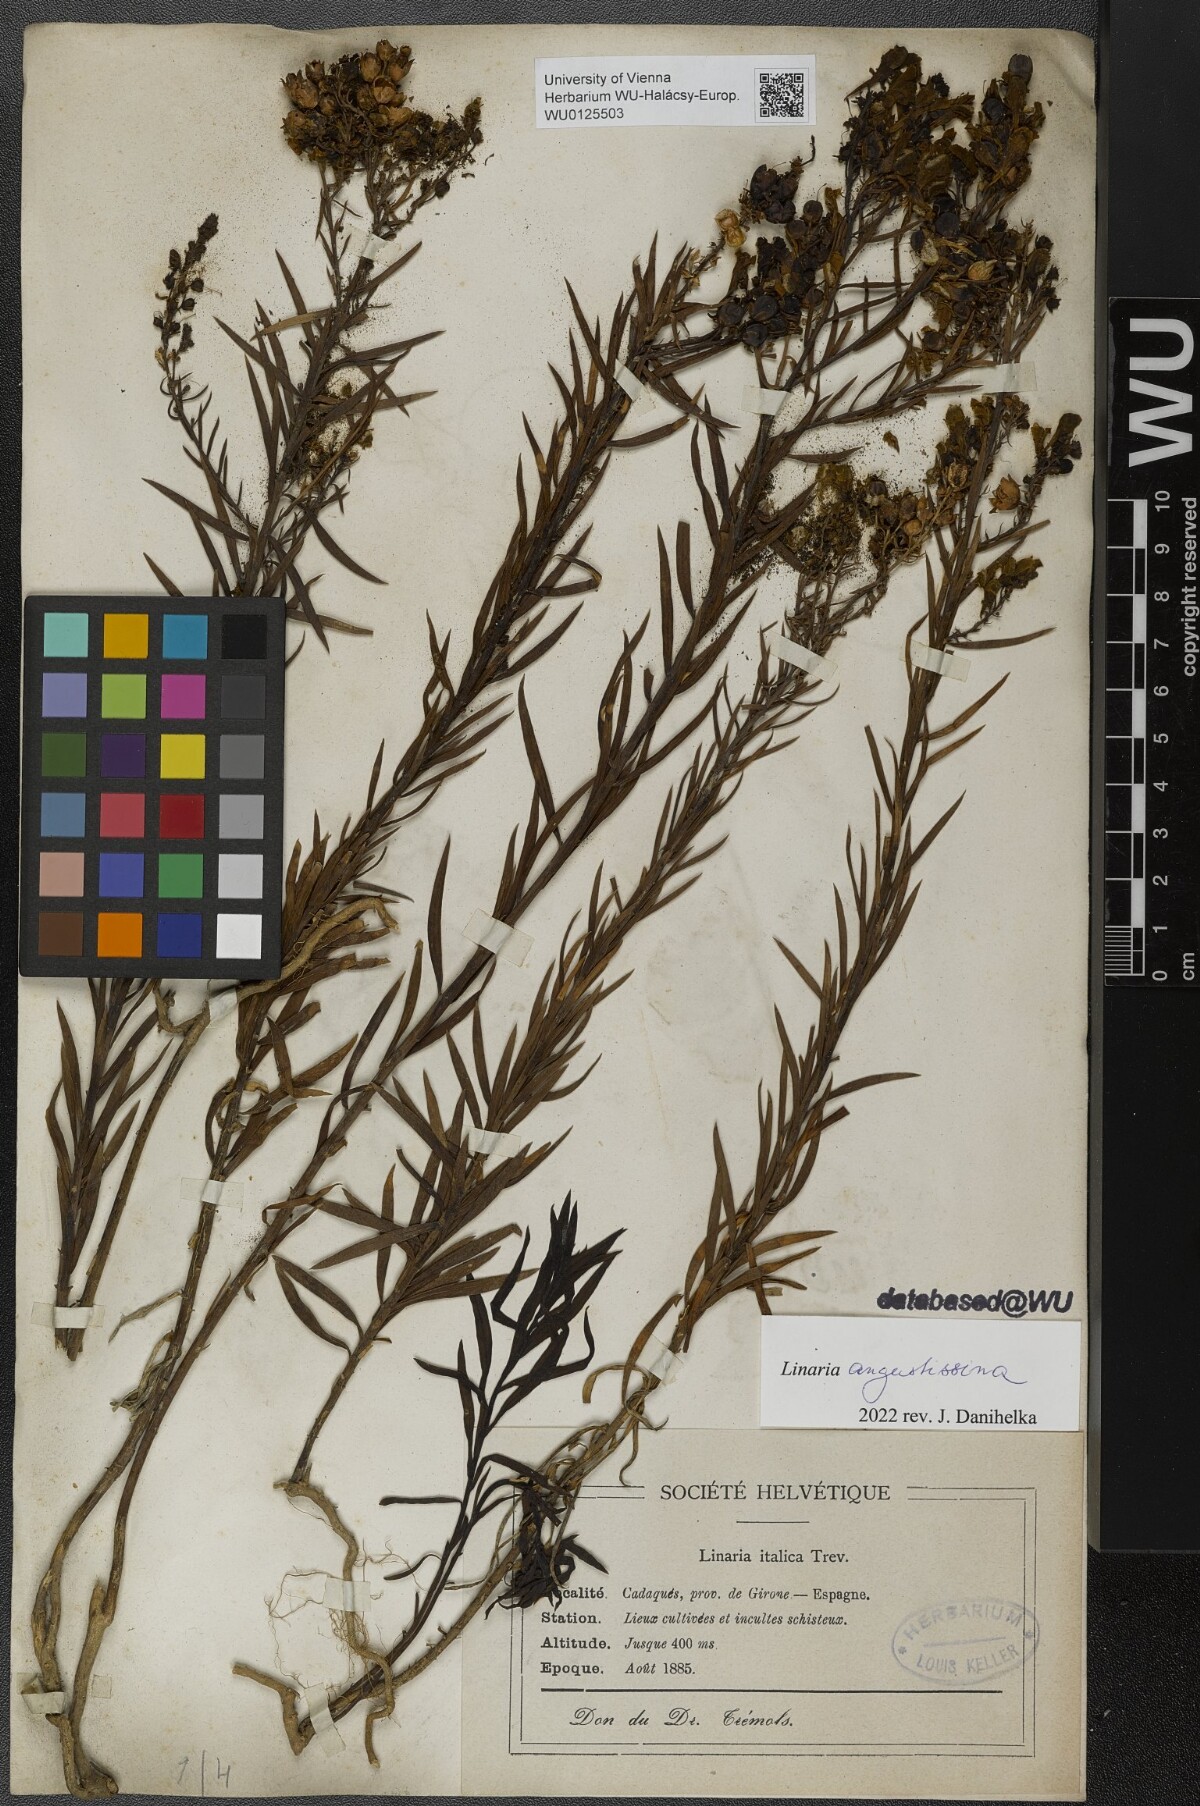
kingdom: Plantae
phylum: Tracheophyta
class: Magnoliopsida
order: Lamiales
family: Plantaginaceae
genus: Linaria
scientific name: Linaria angustissima
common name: Italian toadflax
